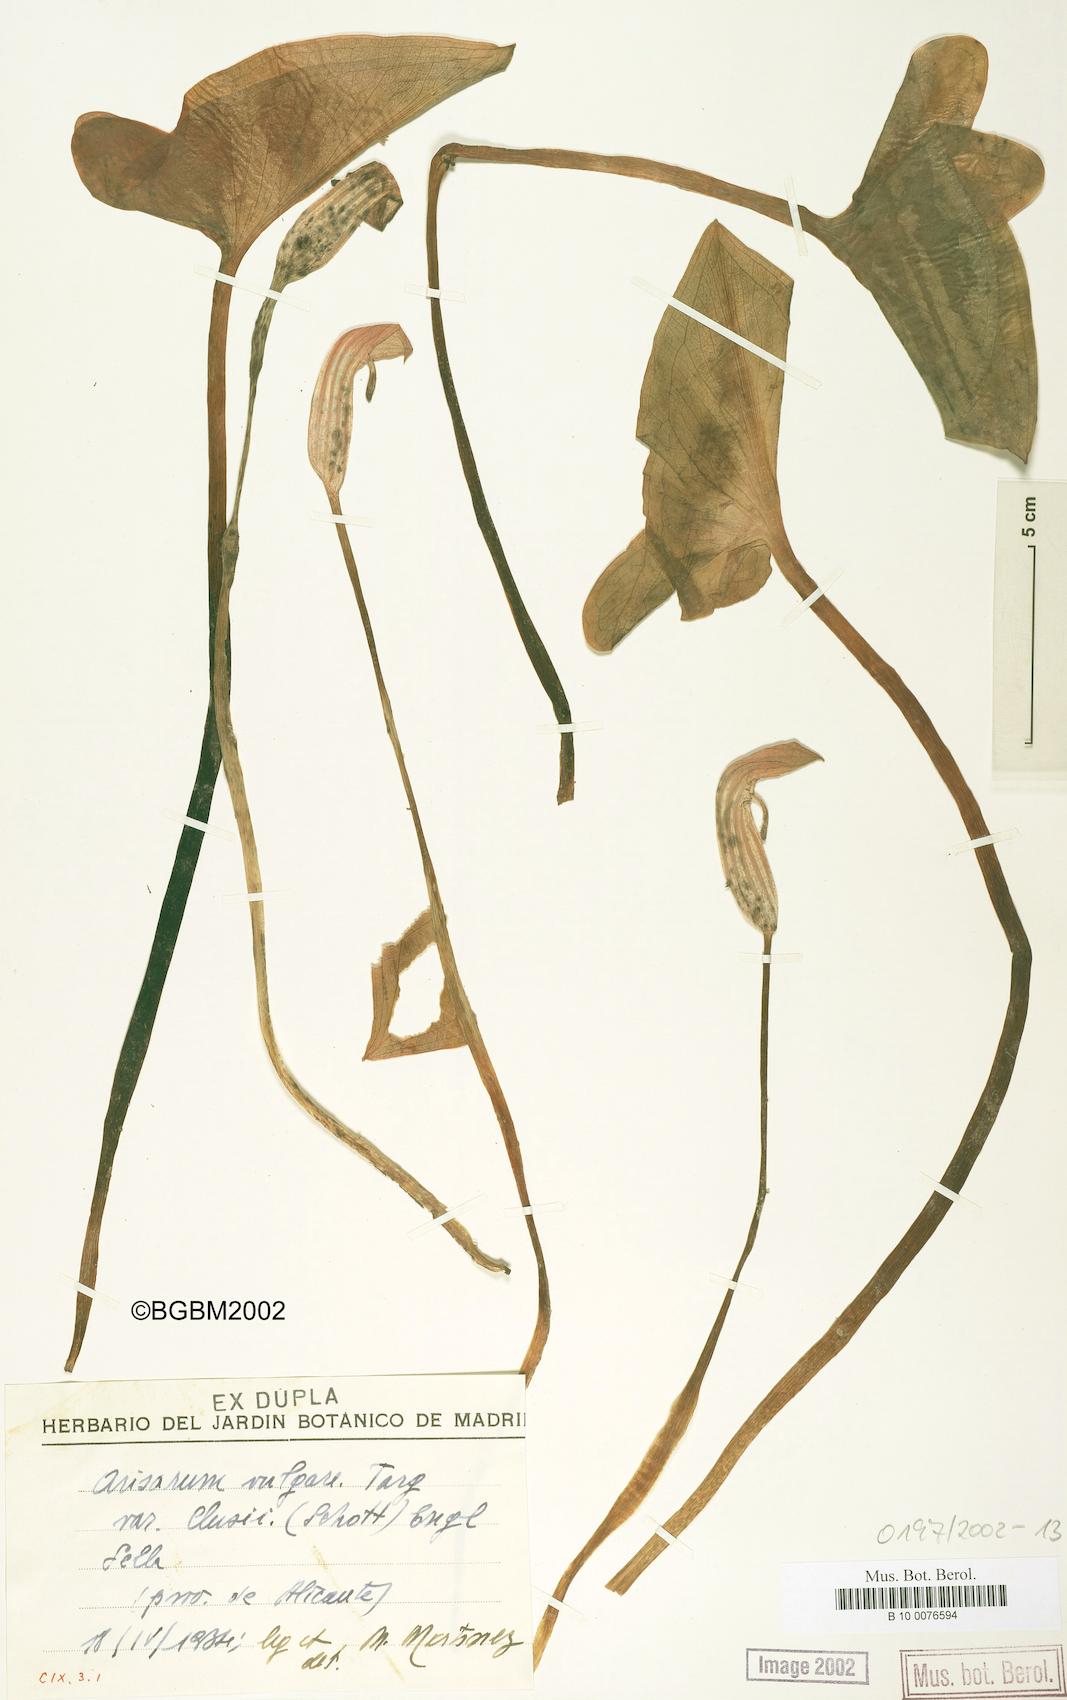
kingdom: Plantae
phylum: Tracheophyta
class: Liliopsida
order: Alismatales
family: Araceae
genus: Arisarum
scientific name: Arisarum simorrhinum
